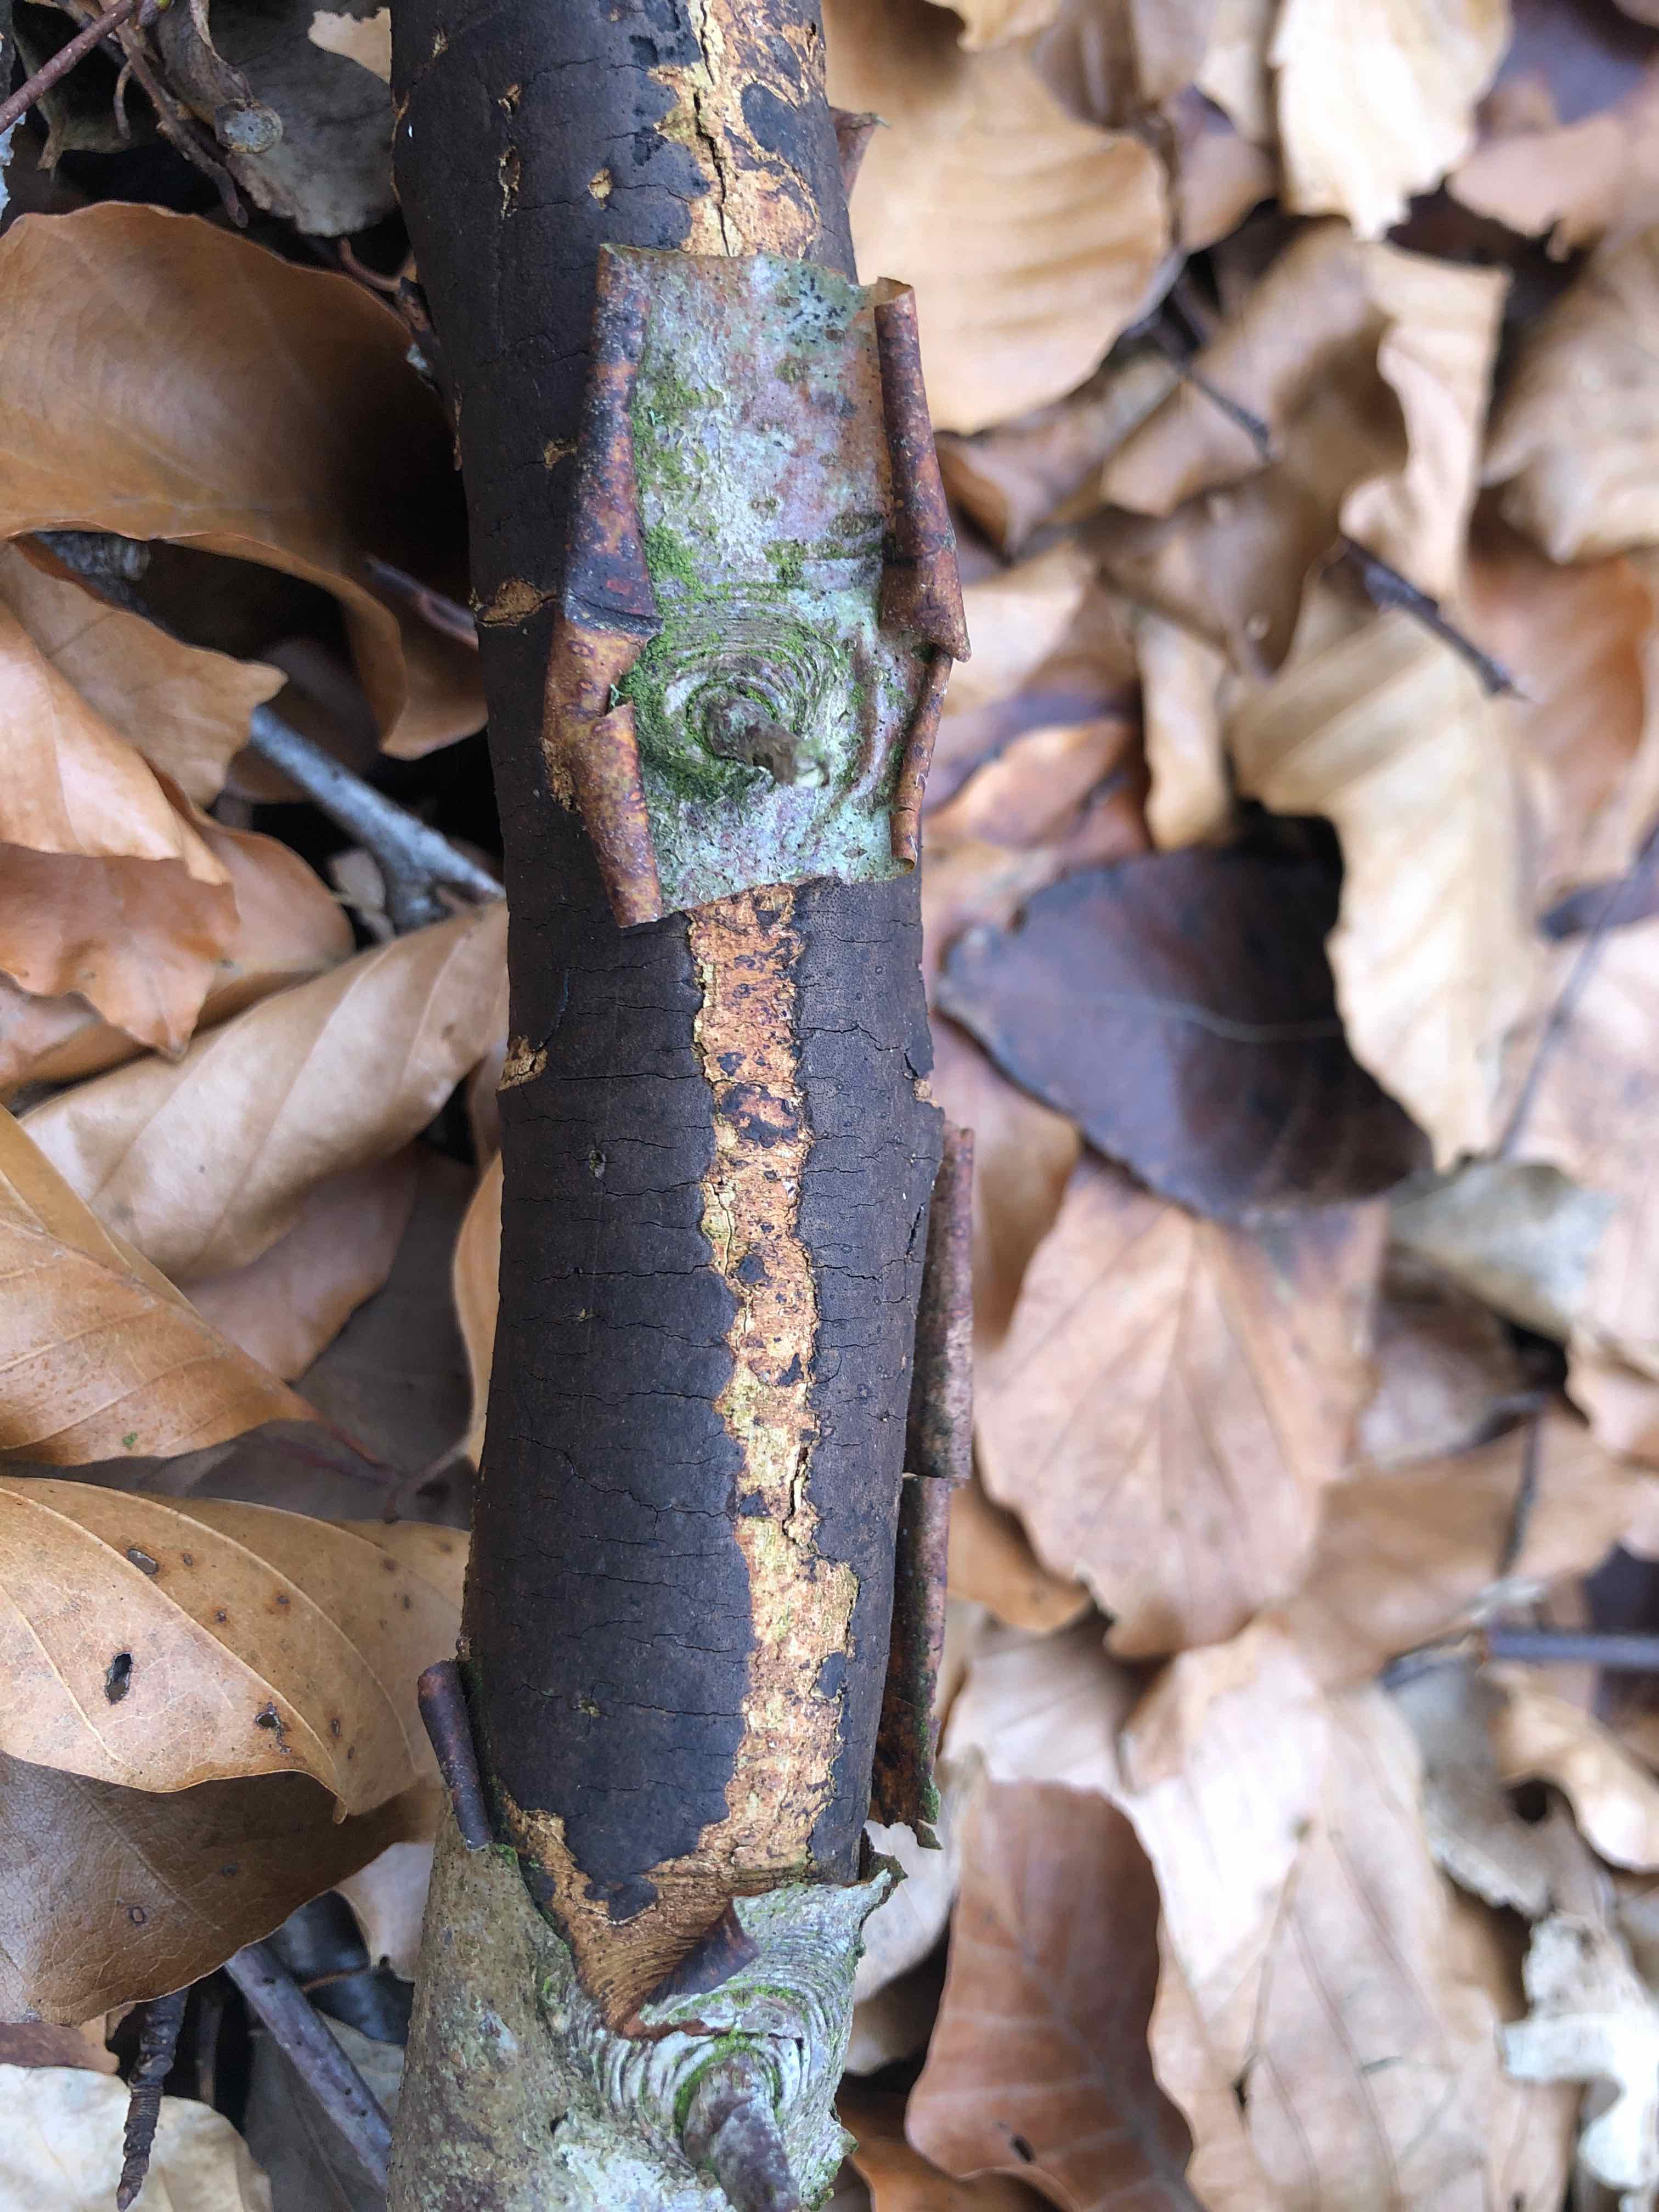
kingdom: Fungi
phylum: Ascomycota
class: Sordariomycetes
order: Xylariales
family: Diatrypaceae
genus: Diatrype
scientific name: Diatrype decorticata
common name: barksprænger-kulskorpe
